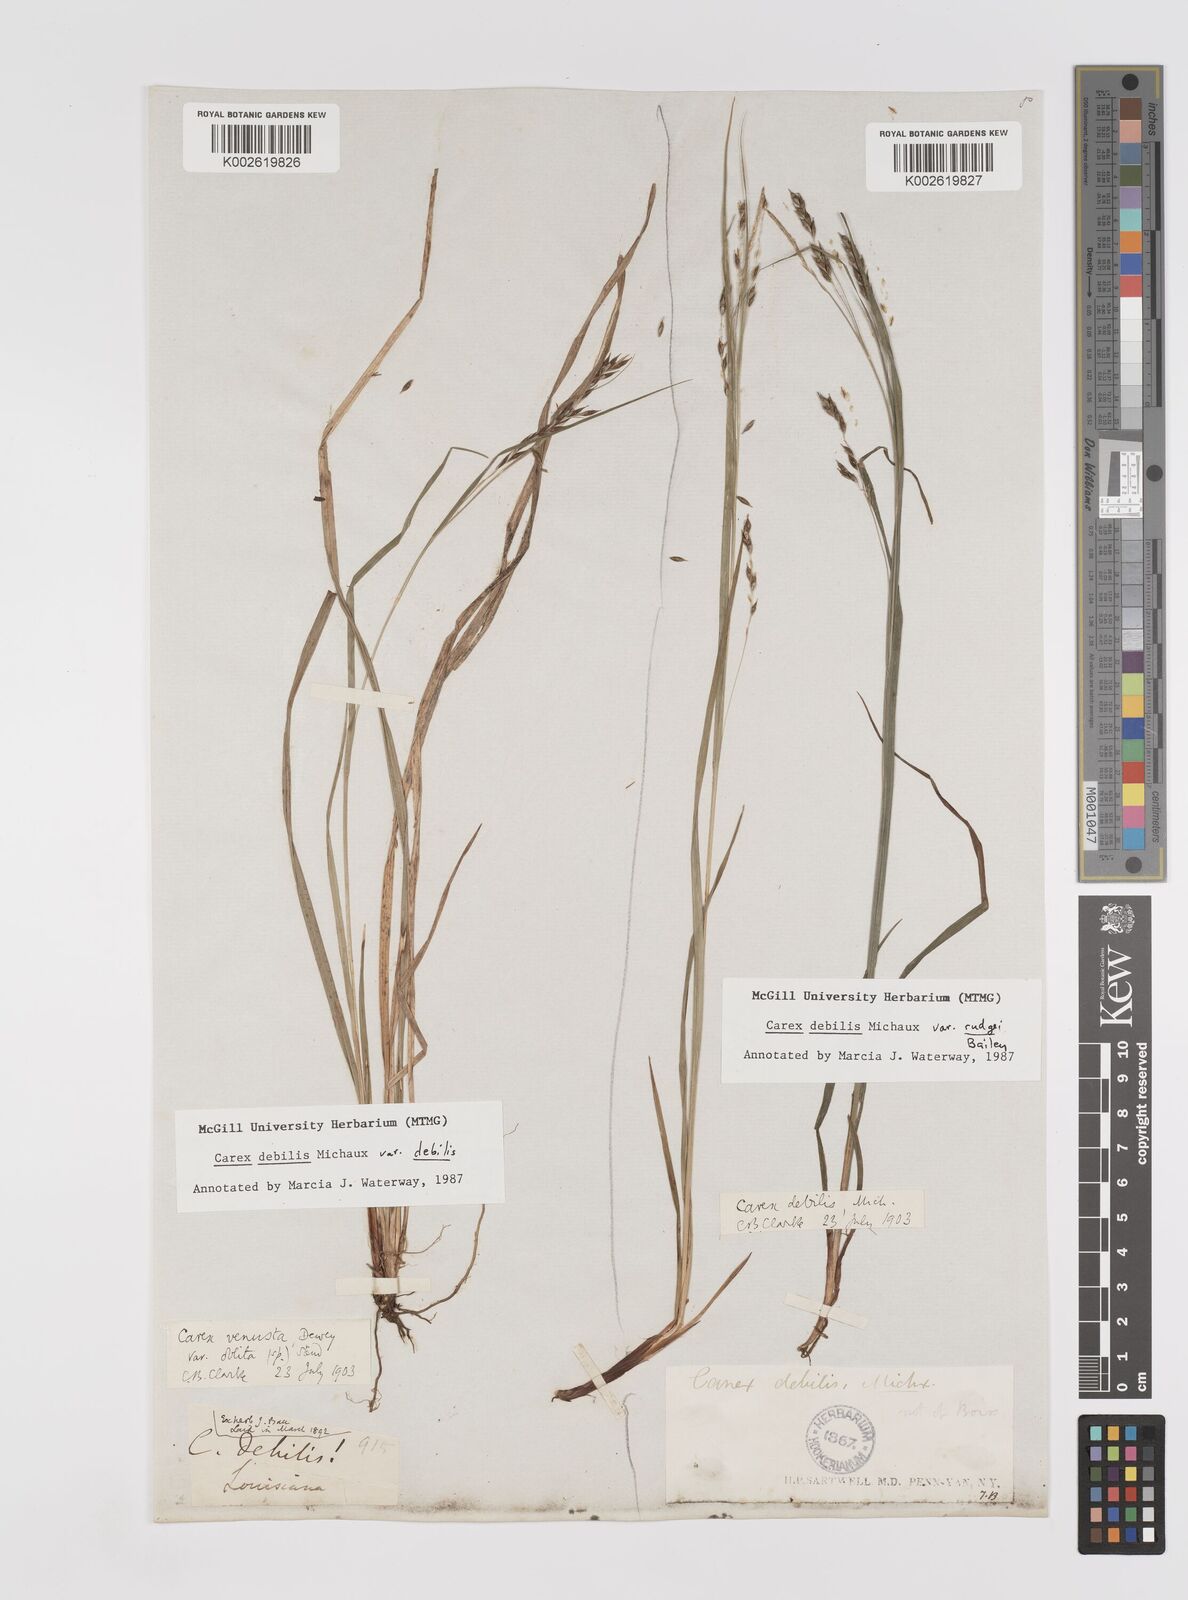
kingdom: Plantae
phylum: Tracheophyta
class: Liliopsida
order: Poales
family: Cyperaceae
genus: Carex
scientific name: Carex debilis
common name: White-edge sedge
